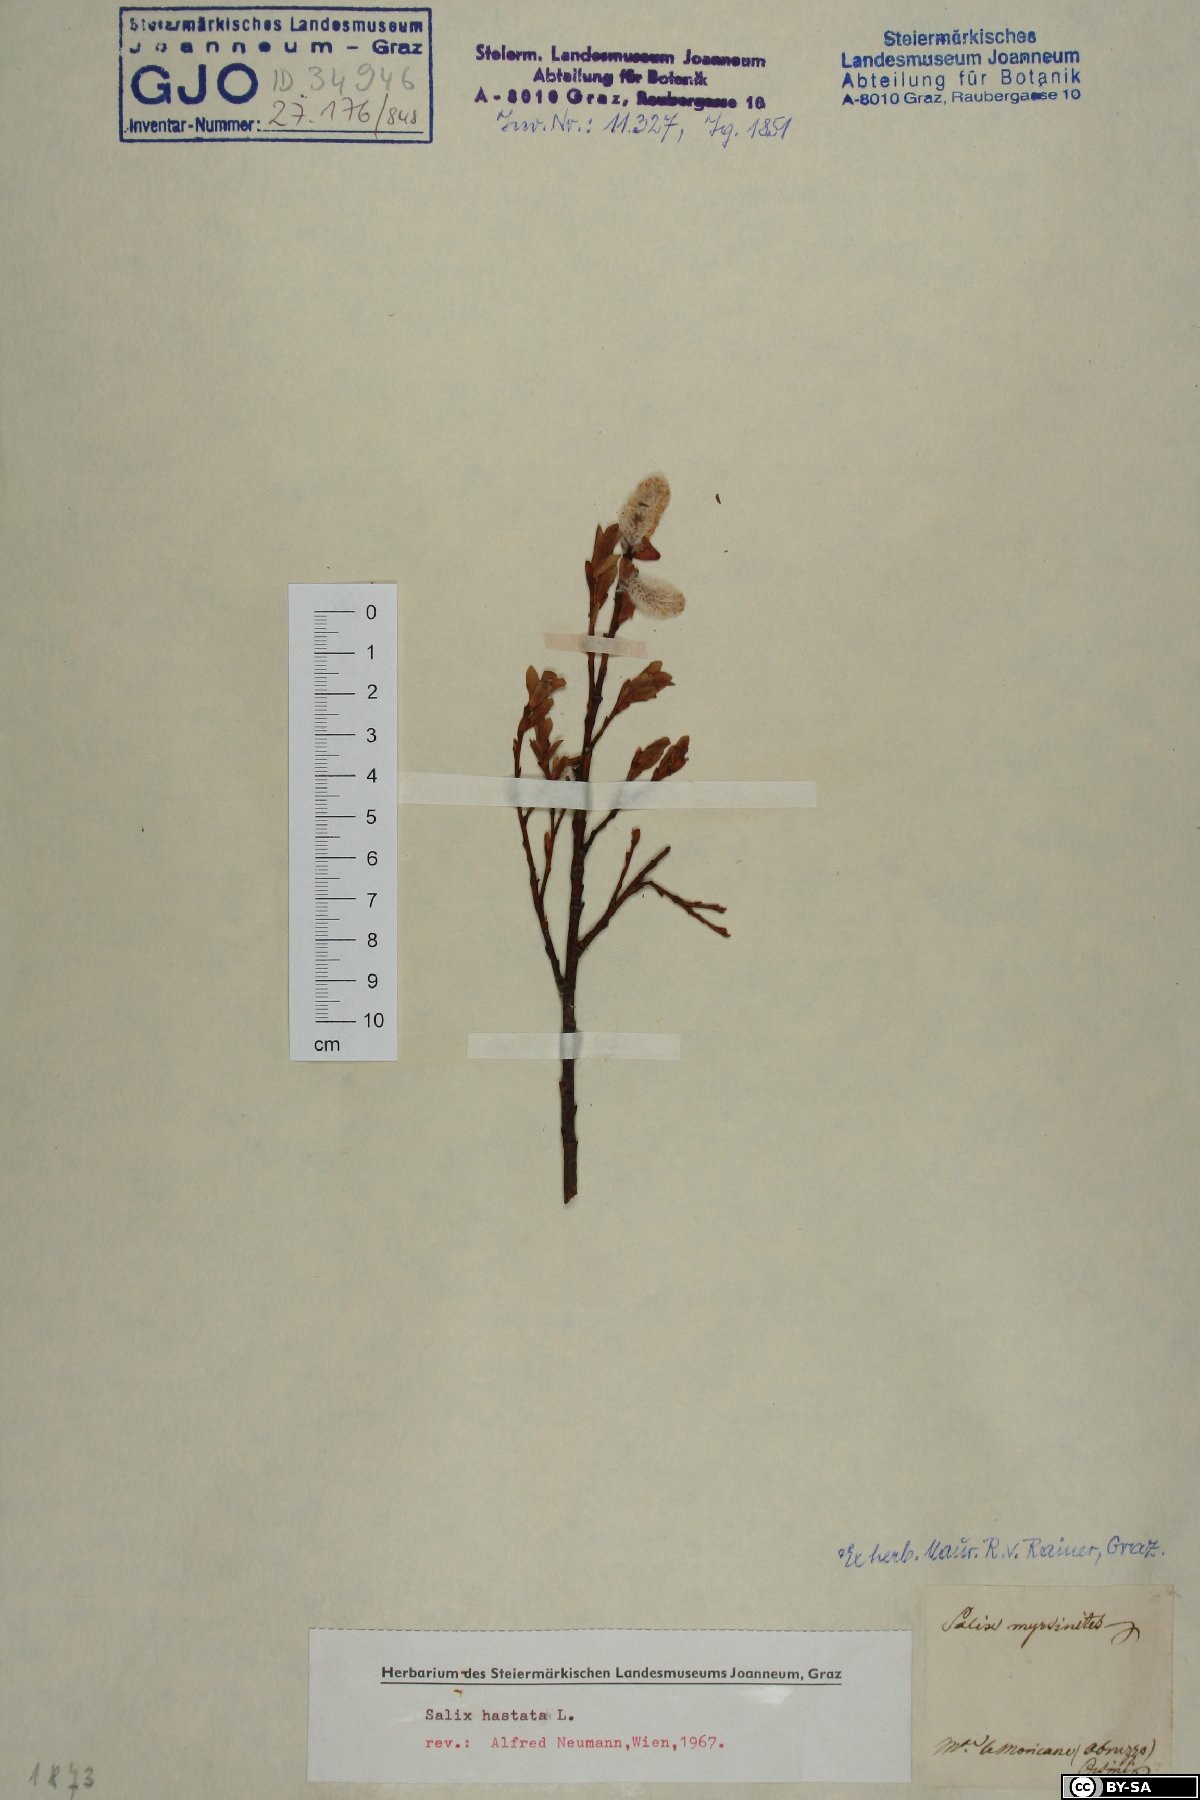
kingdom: Plantae
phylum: Tracheophyta
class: Magnoliopsida
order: Malpighiales
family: Salicaceae
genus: Salix
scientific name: Salix hastata
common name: Halberd willow
